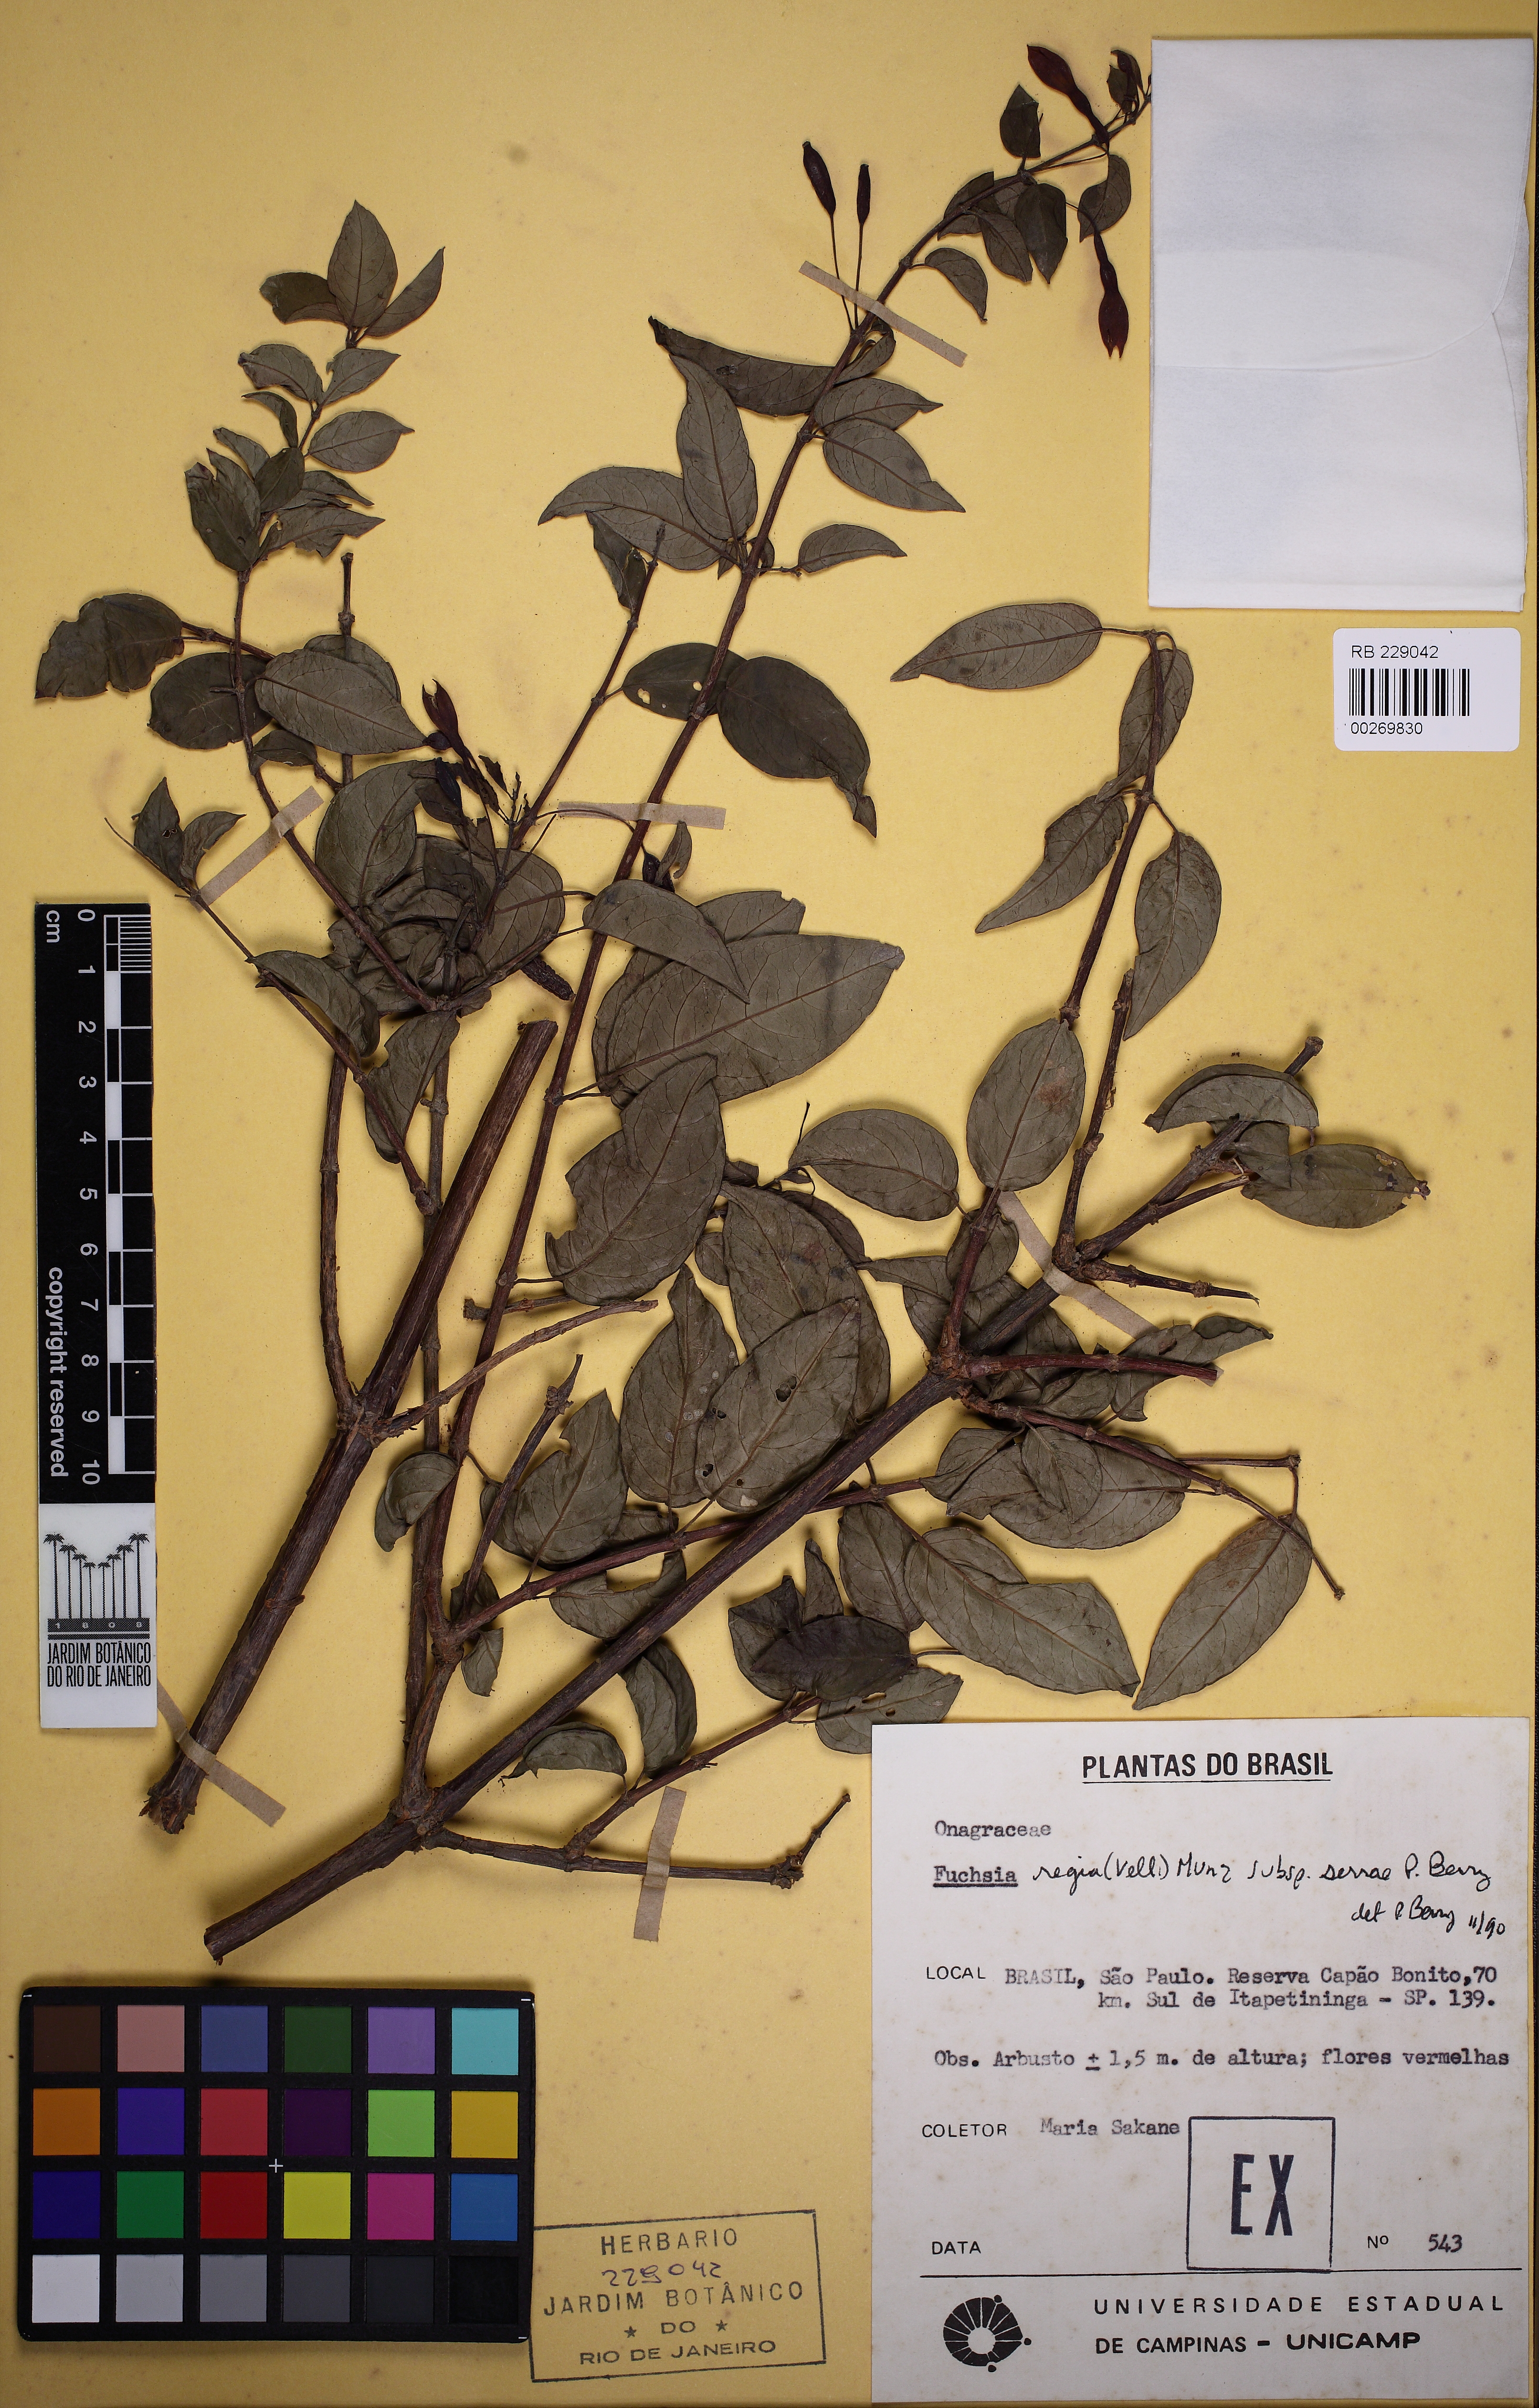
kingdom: Plantae
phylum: Tracheophyta
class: Magnoliopsida
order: Myrtales
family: Onagraceae
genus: Fuchsia
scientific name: Fuchsia regia
